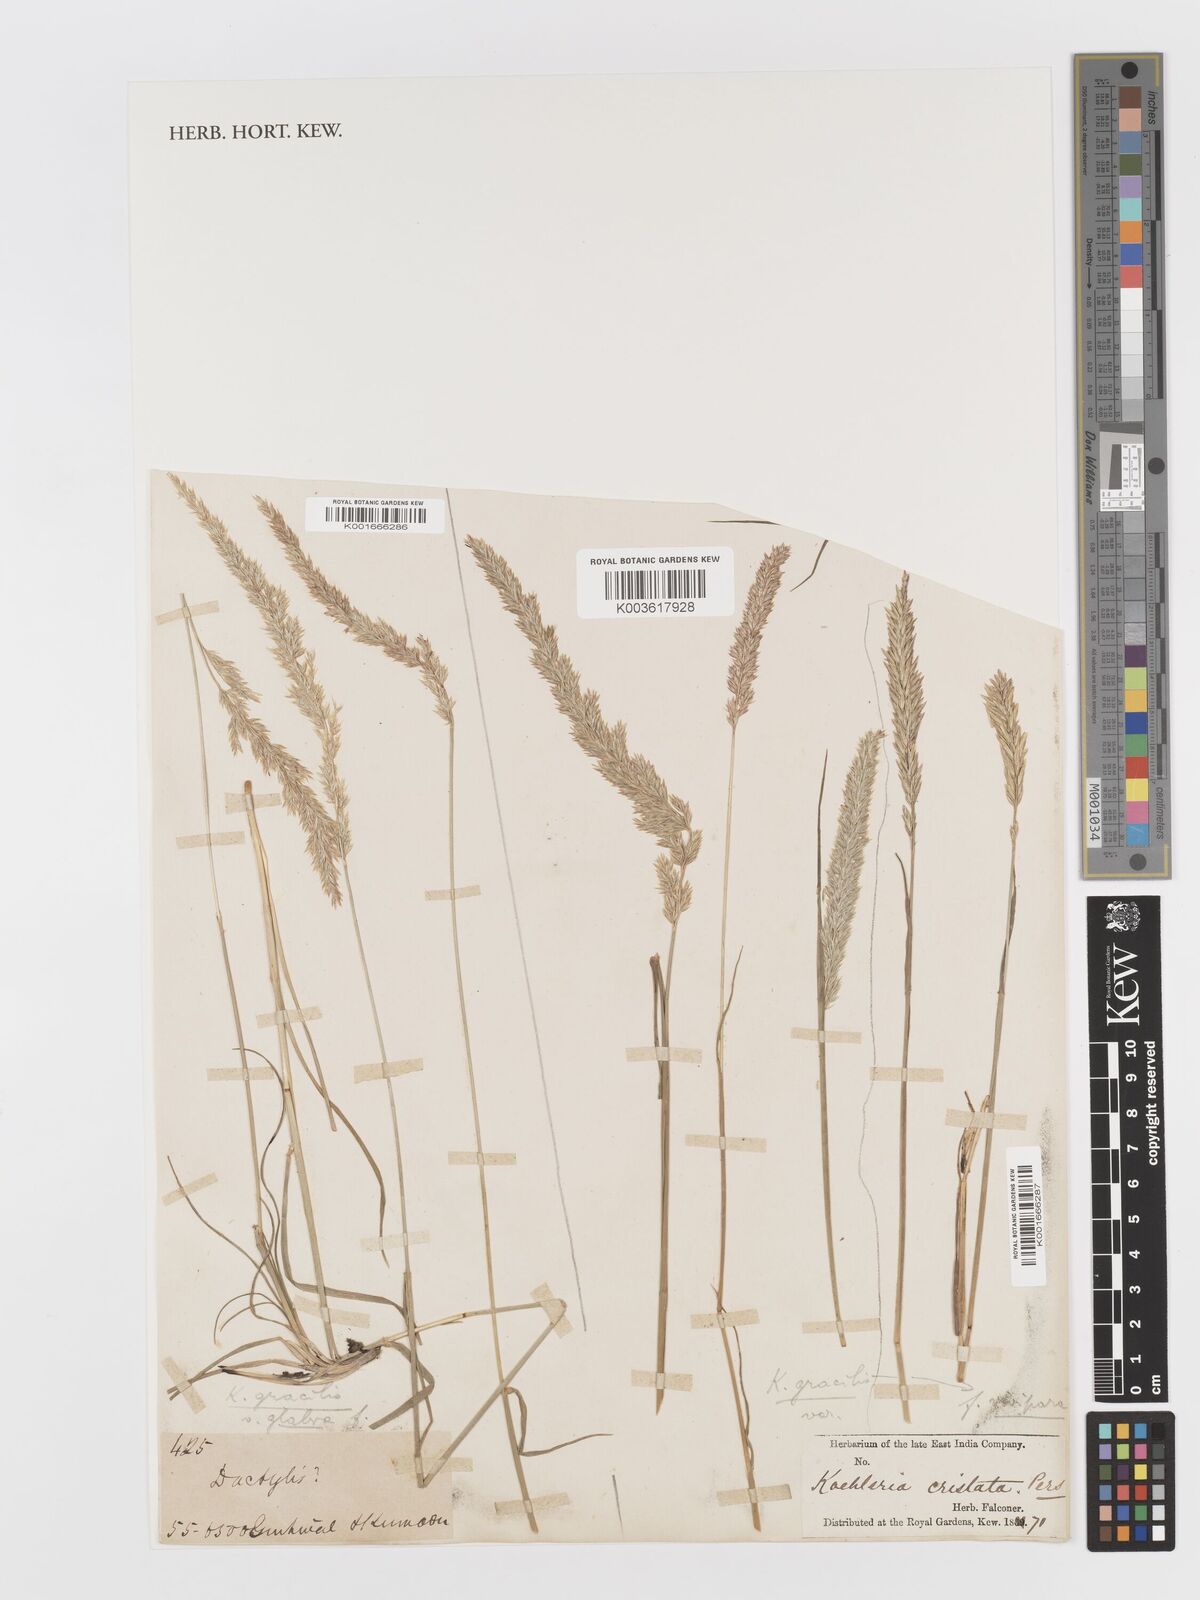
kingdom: Plantae
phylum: Tracheophyta
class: Liliopsida
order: Poales
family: Poaceae
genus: Koeleria
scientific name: Koeleria
